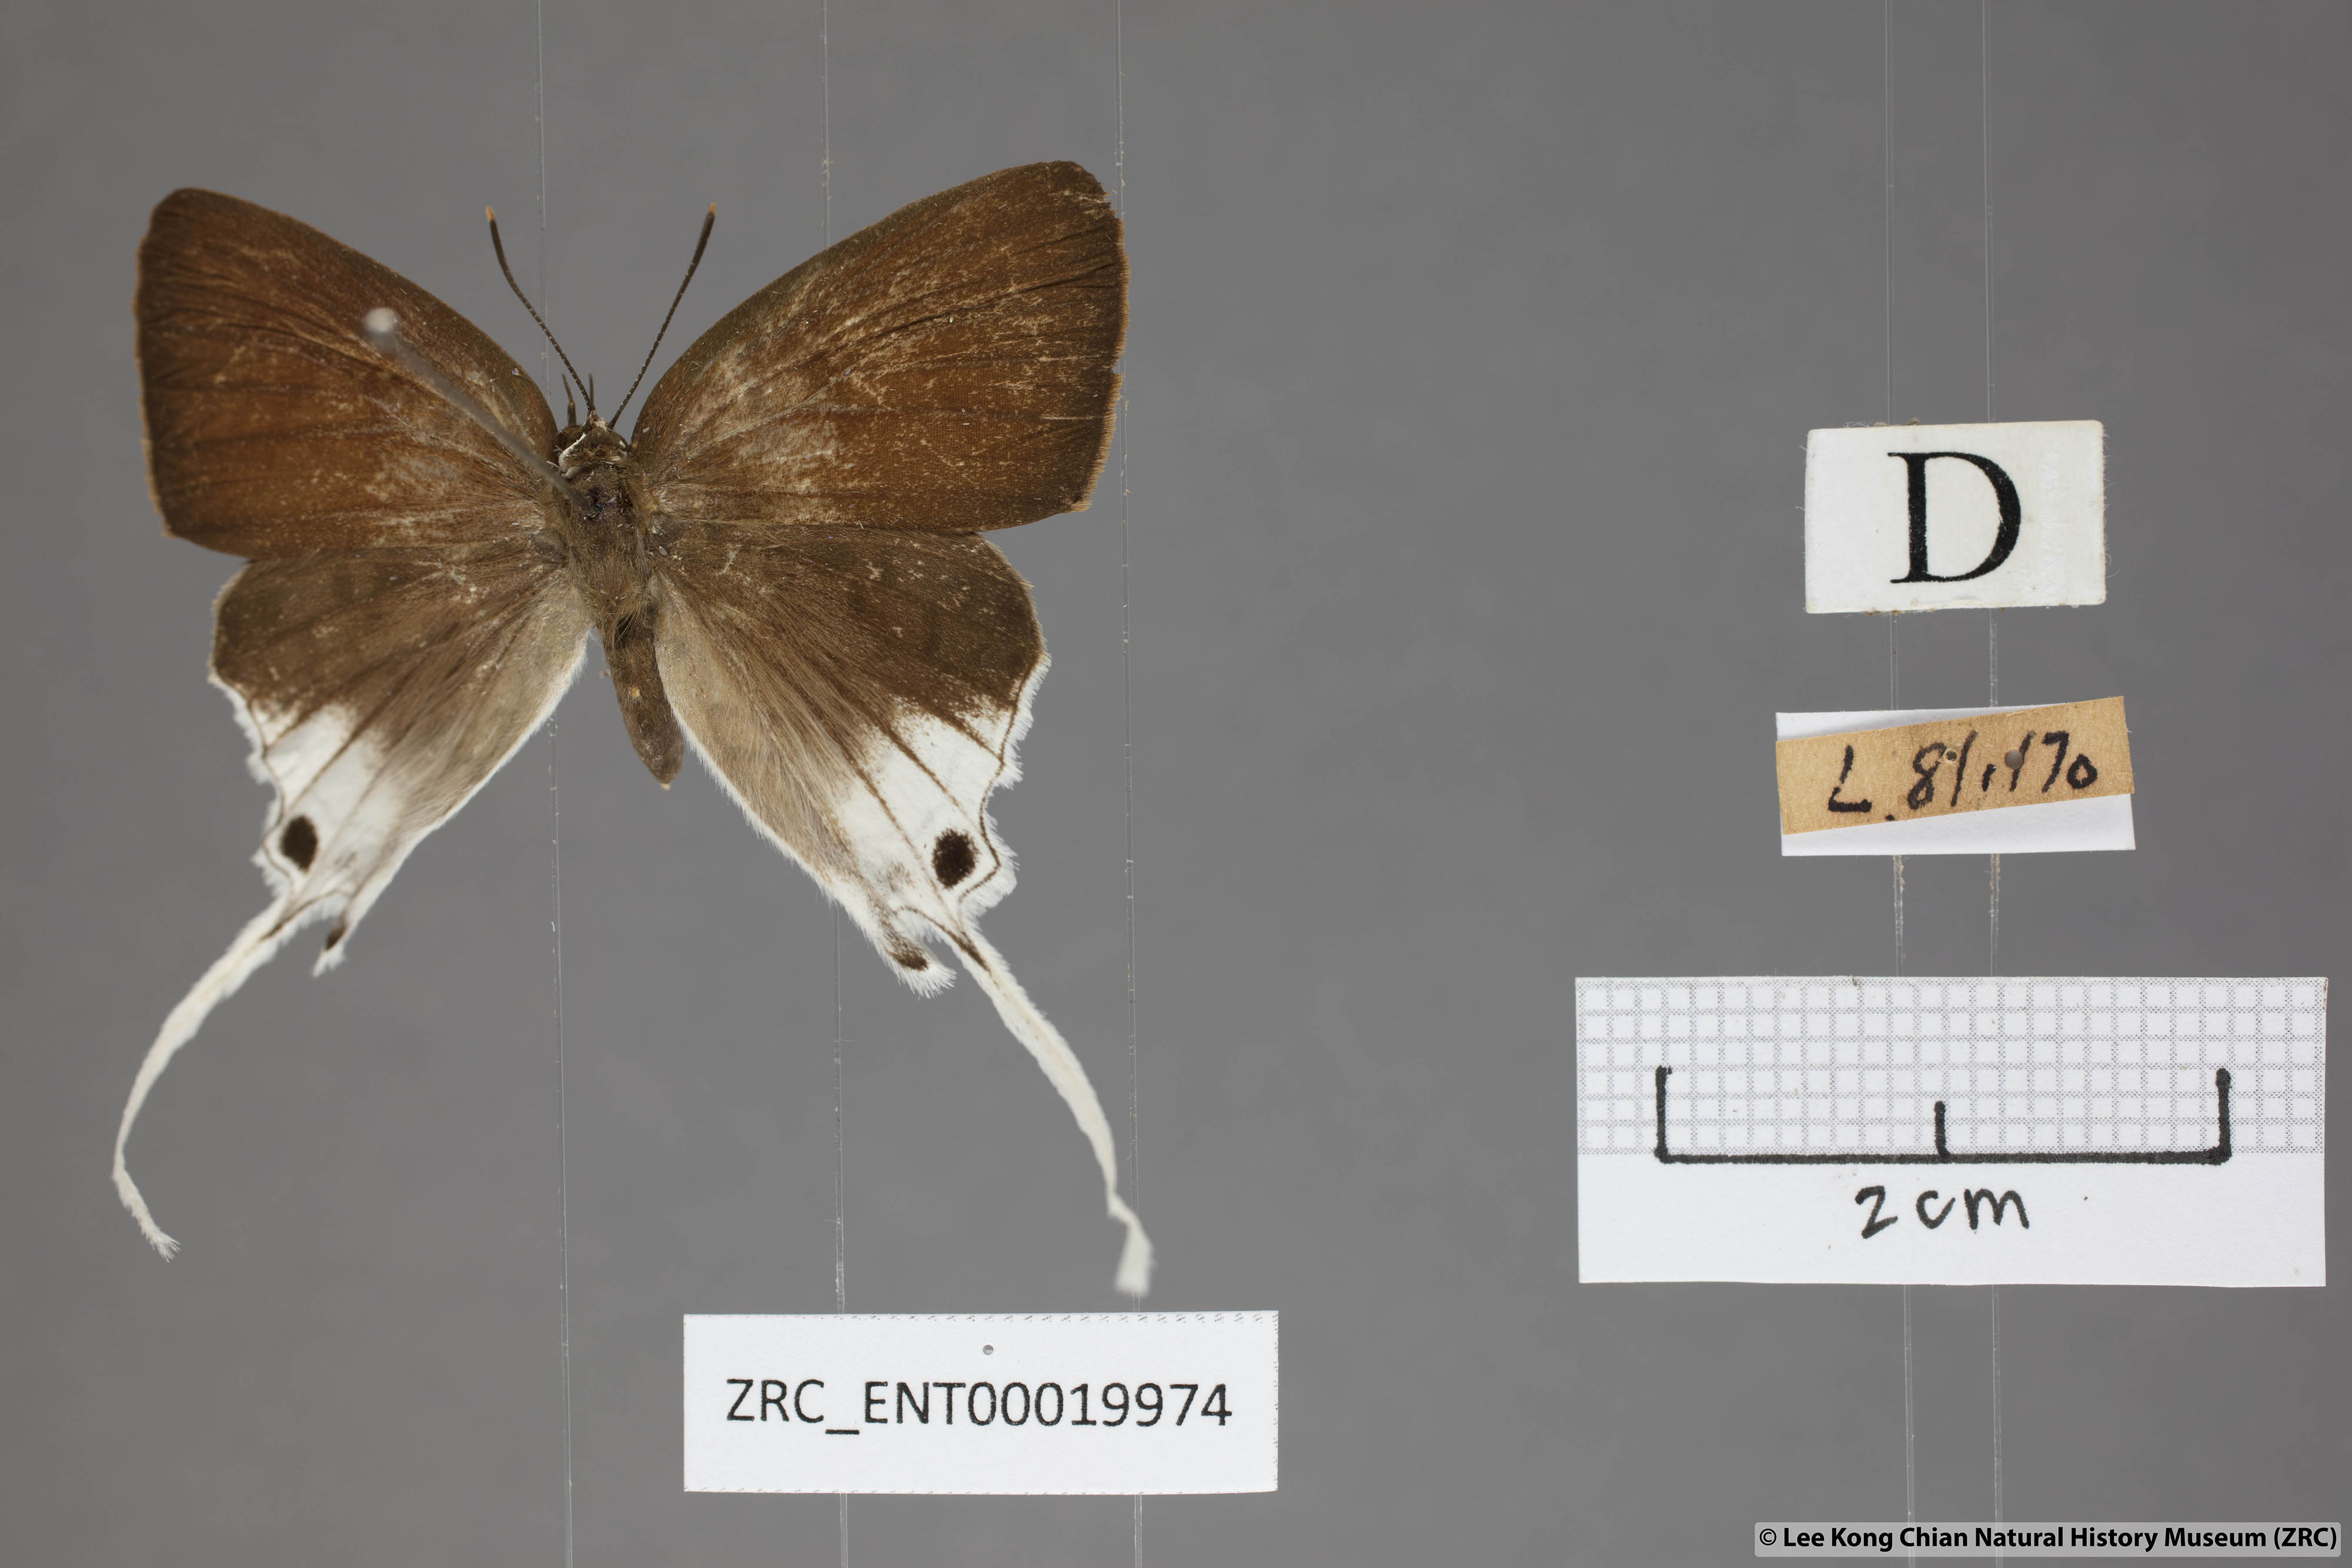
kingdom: Animalia
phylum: Arthropoda
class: Insecta
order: Lepidoptera
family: Lycaenidae
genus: Bindahara
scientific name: Bindahara phocides
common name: Sword-tailed flash
